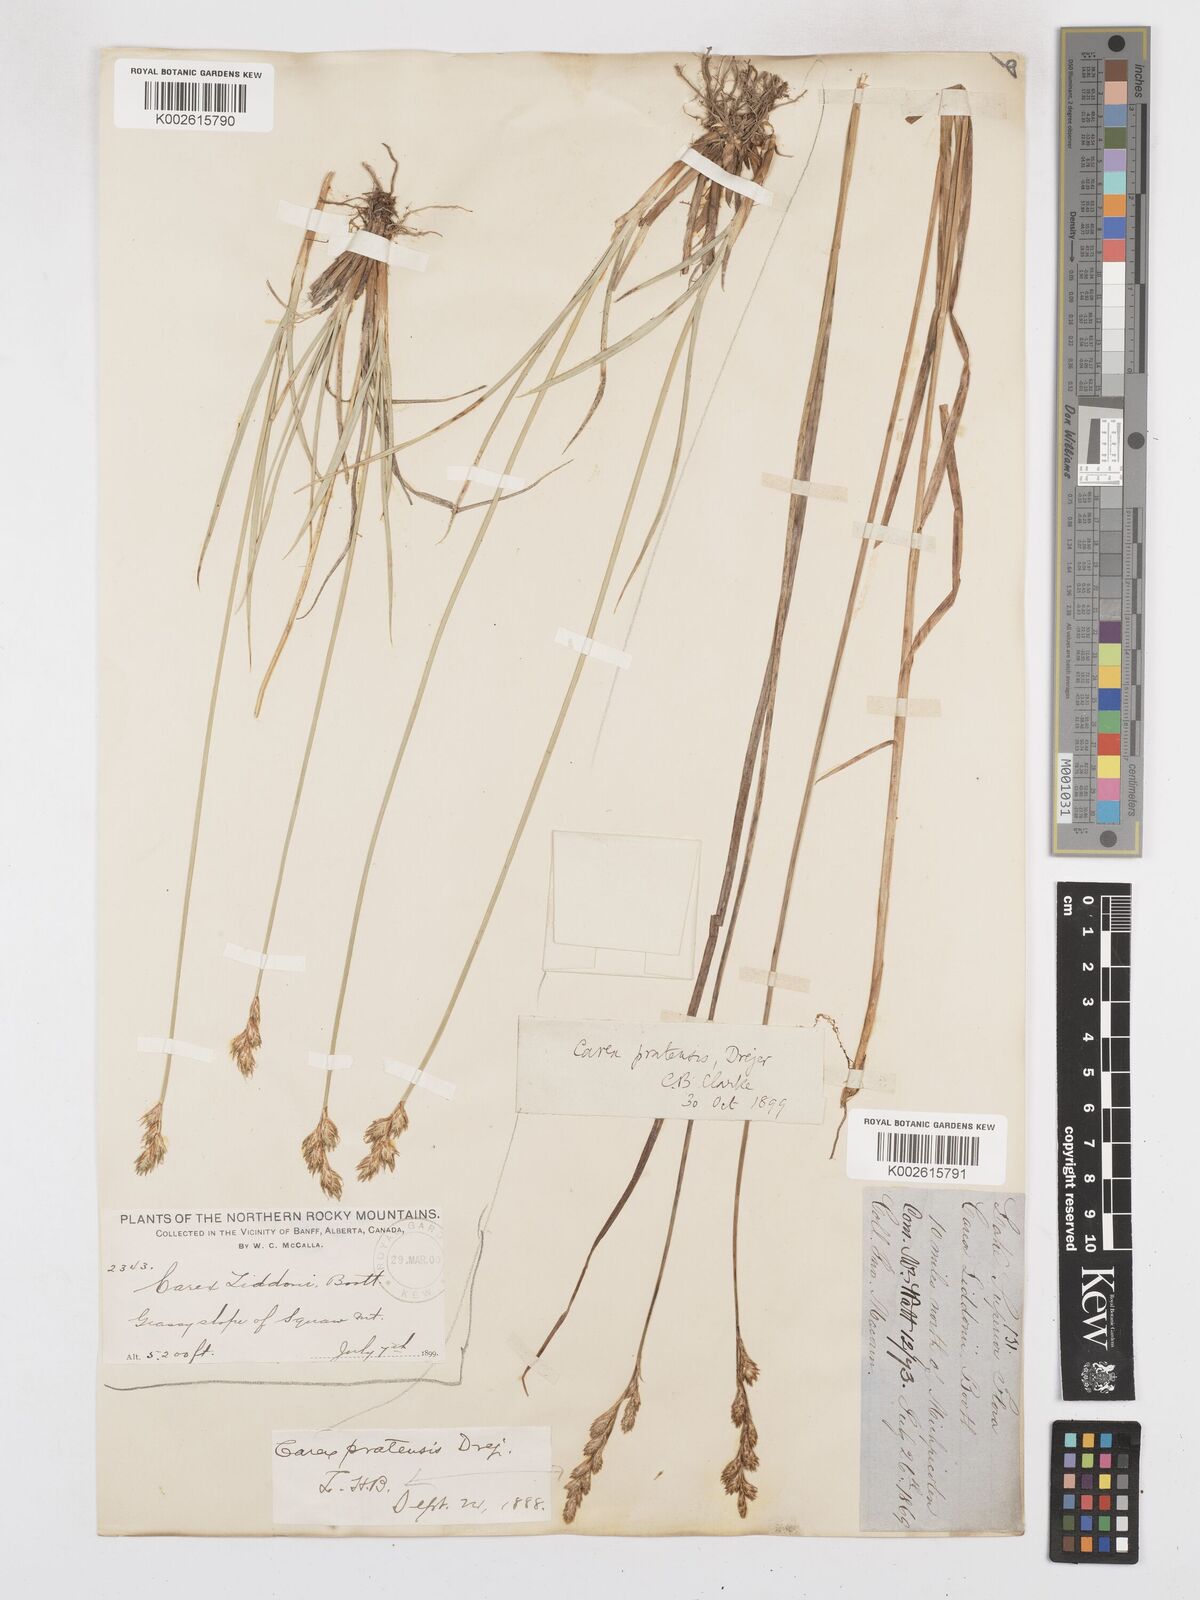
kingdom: Plantae
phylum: Tracheophyta
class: Liliopsida
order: Poales
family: Cyperaceae
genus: Carex
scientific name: Carex praticola
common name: Large-fruited oval sedge
